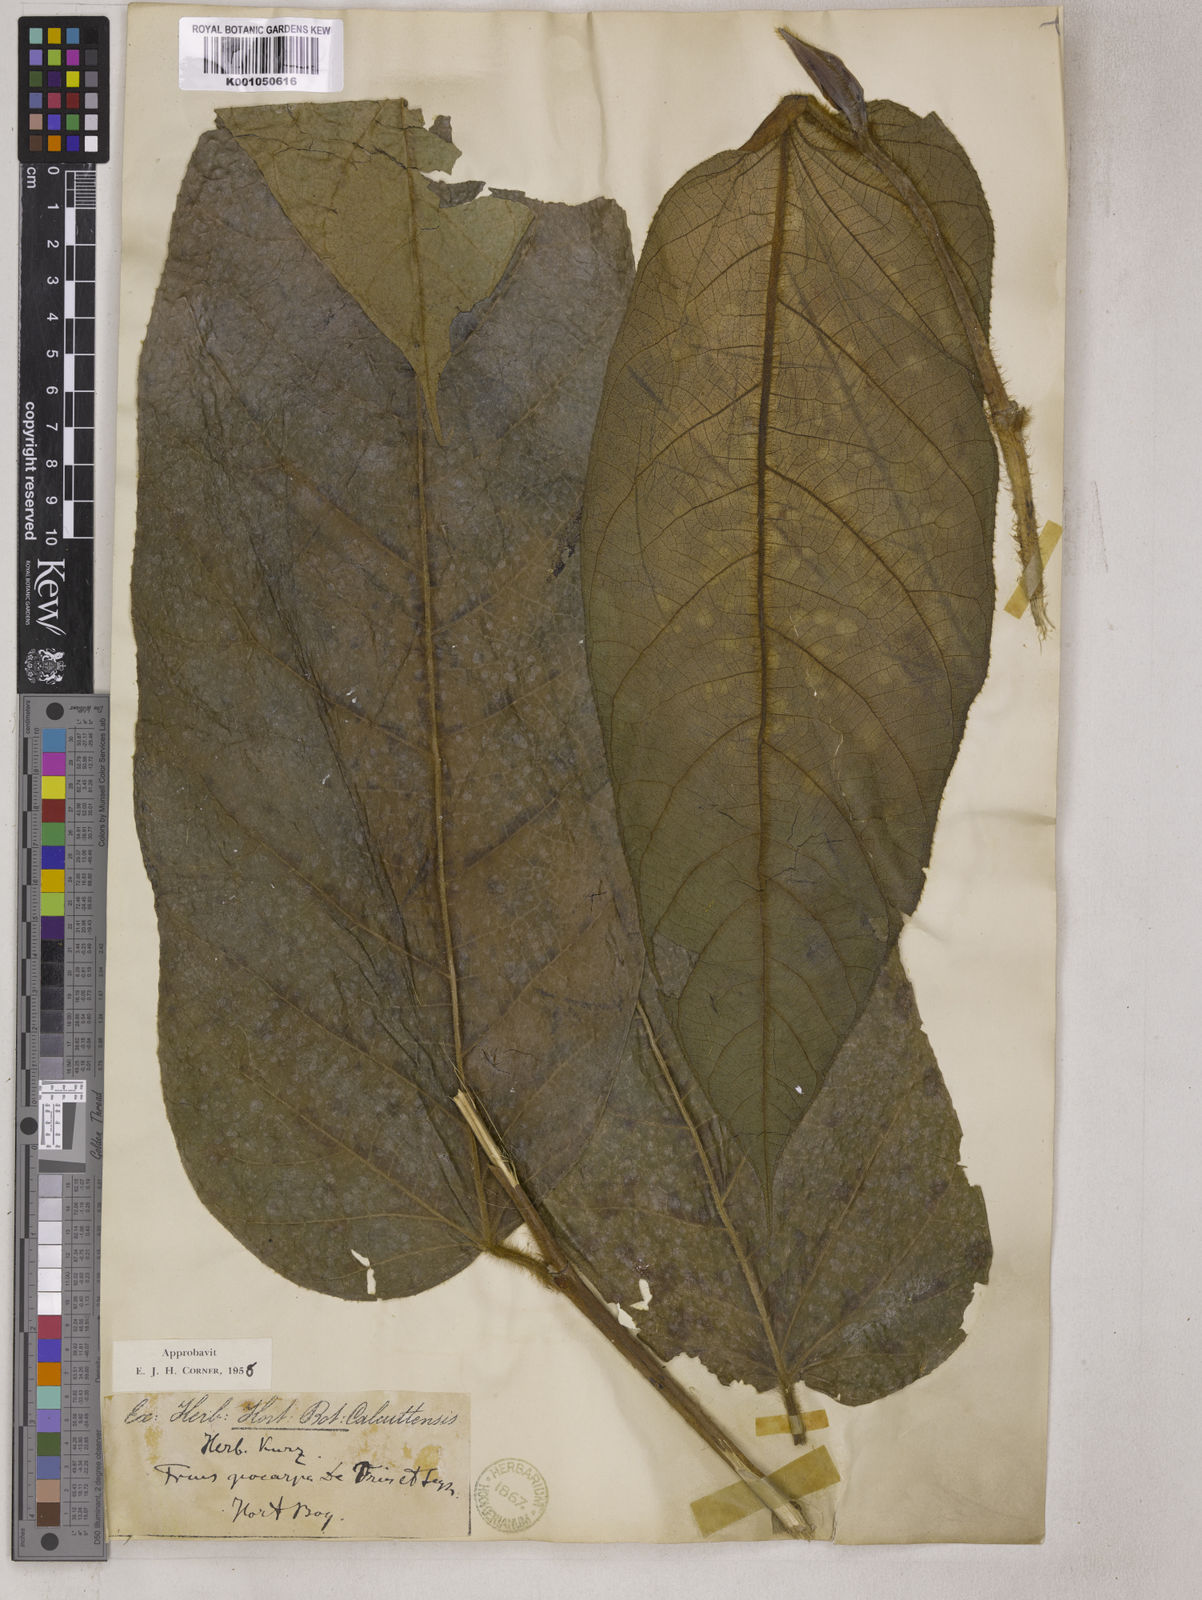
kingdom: Plantae
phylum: Tracheophyta
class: Magnoliopsida
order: Rosales
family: Moraceae
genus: Ficus
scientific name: Ficus
